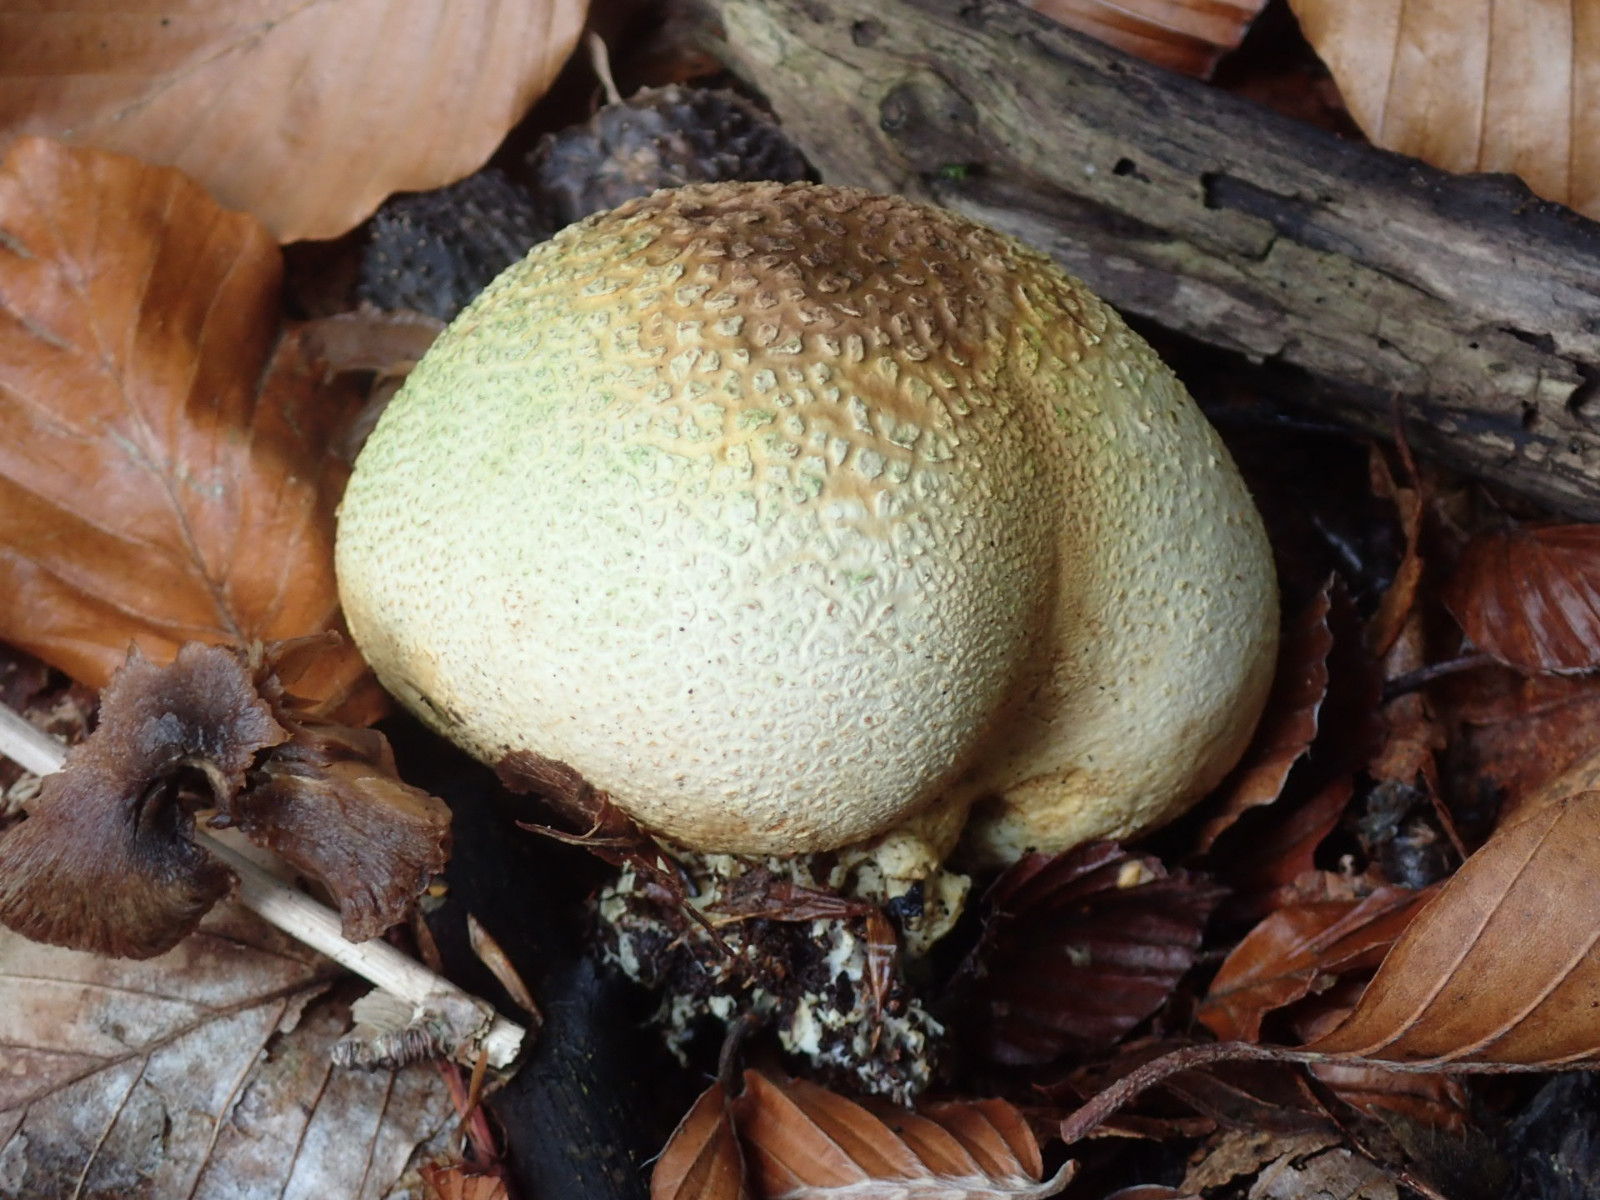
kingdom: Fungi
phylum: Basidiomycota
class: Agaricomycetes
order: Boletales
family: Sclerodermataceae
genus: Scleroderma
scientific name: Scleroderma citrinum
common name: almindelig bruskbold
